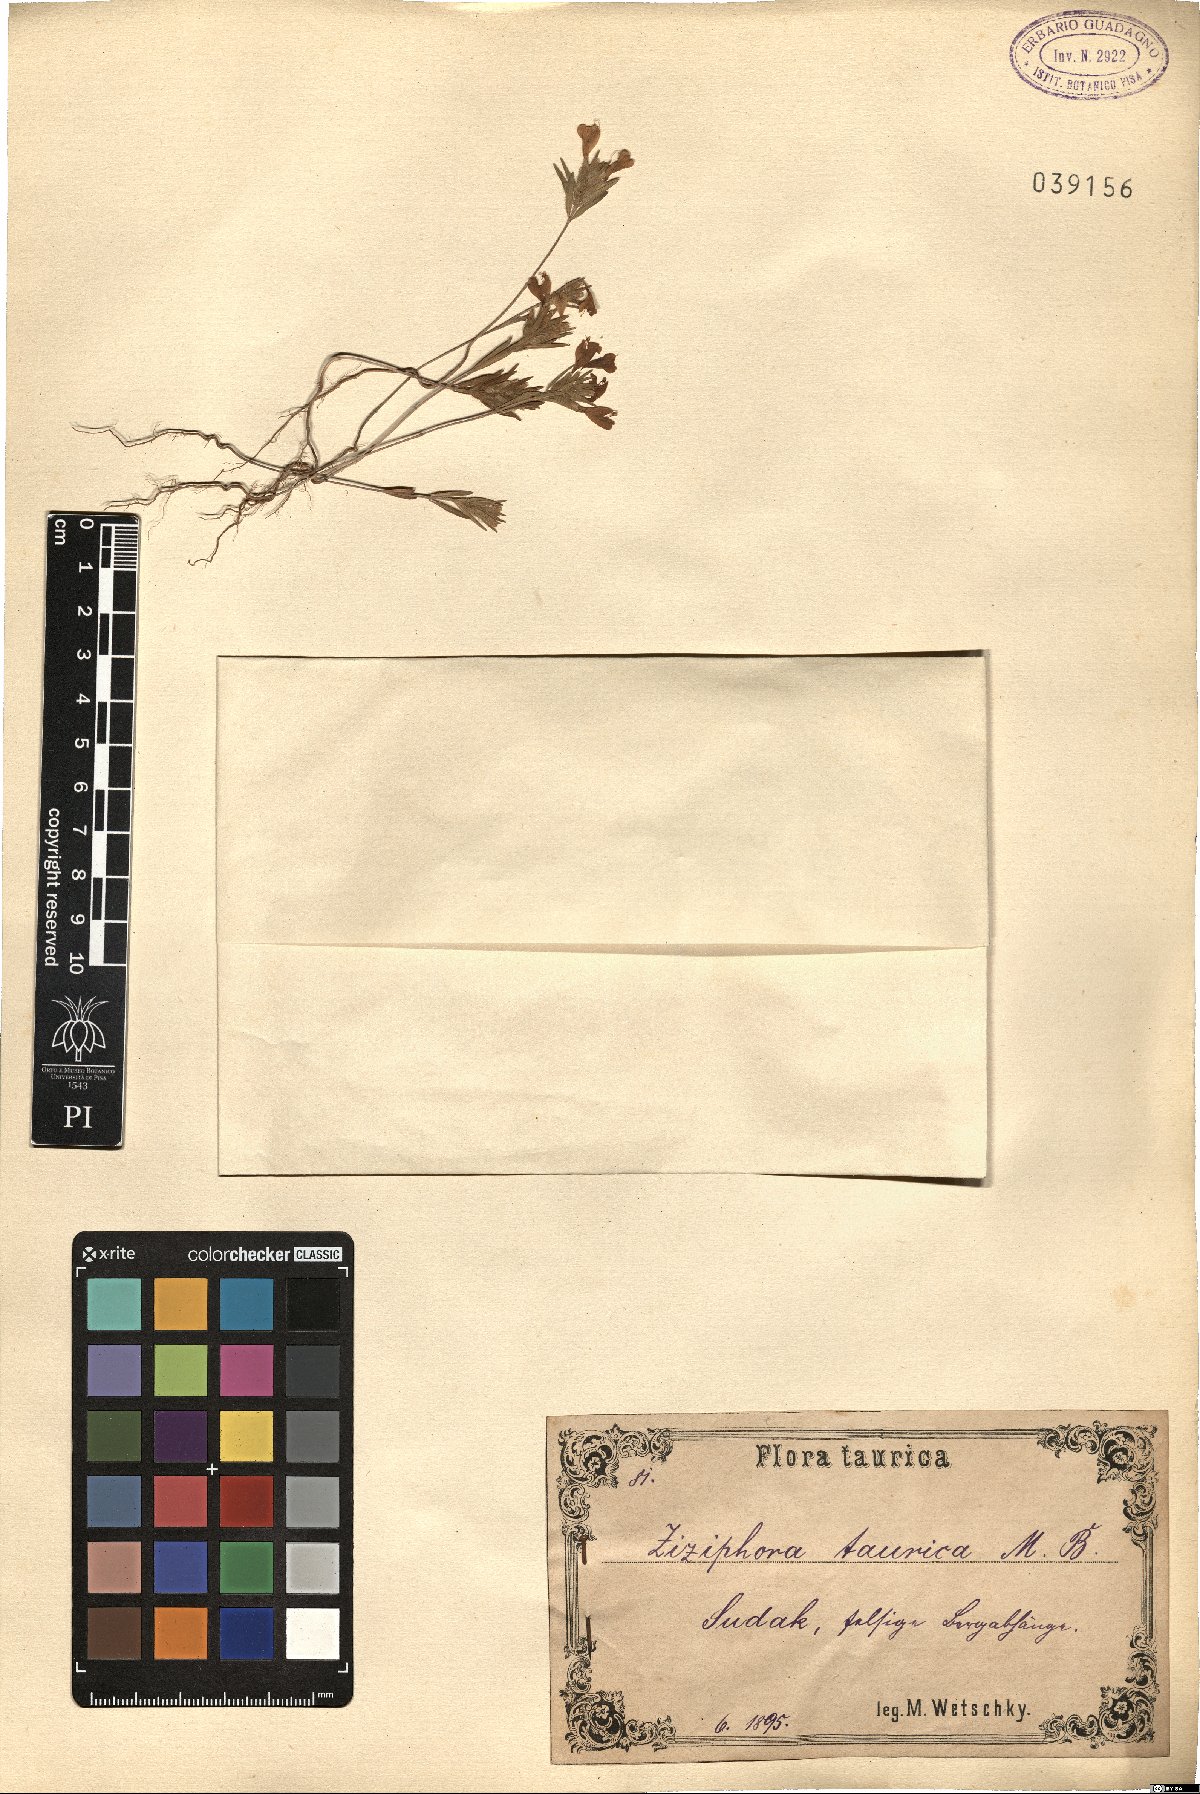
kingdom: Plantae
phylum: Tracheophyta
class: Magnoliopsida
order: Lamiales
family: Lamiaceae
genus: Ziziphora
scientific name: Ziziphora taurica
